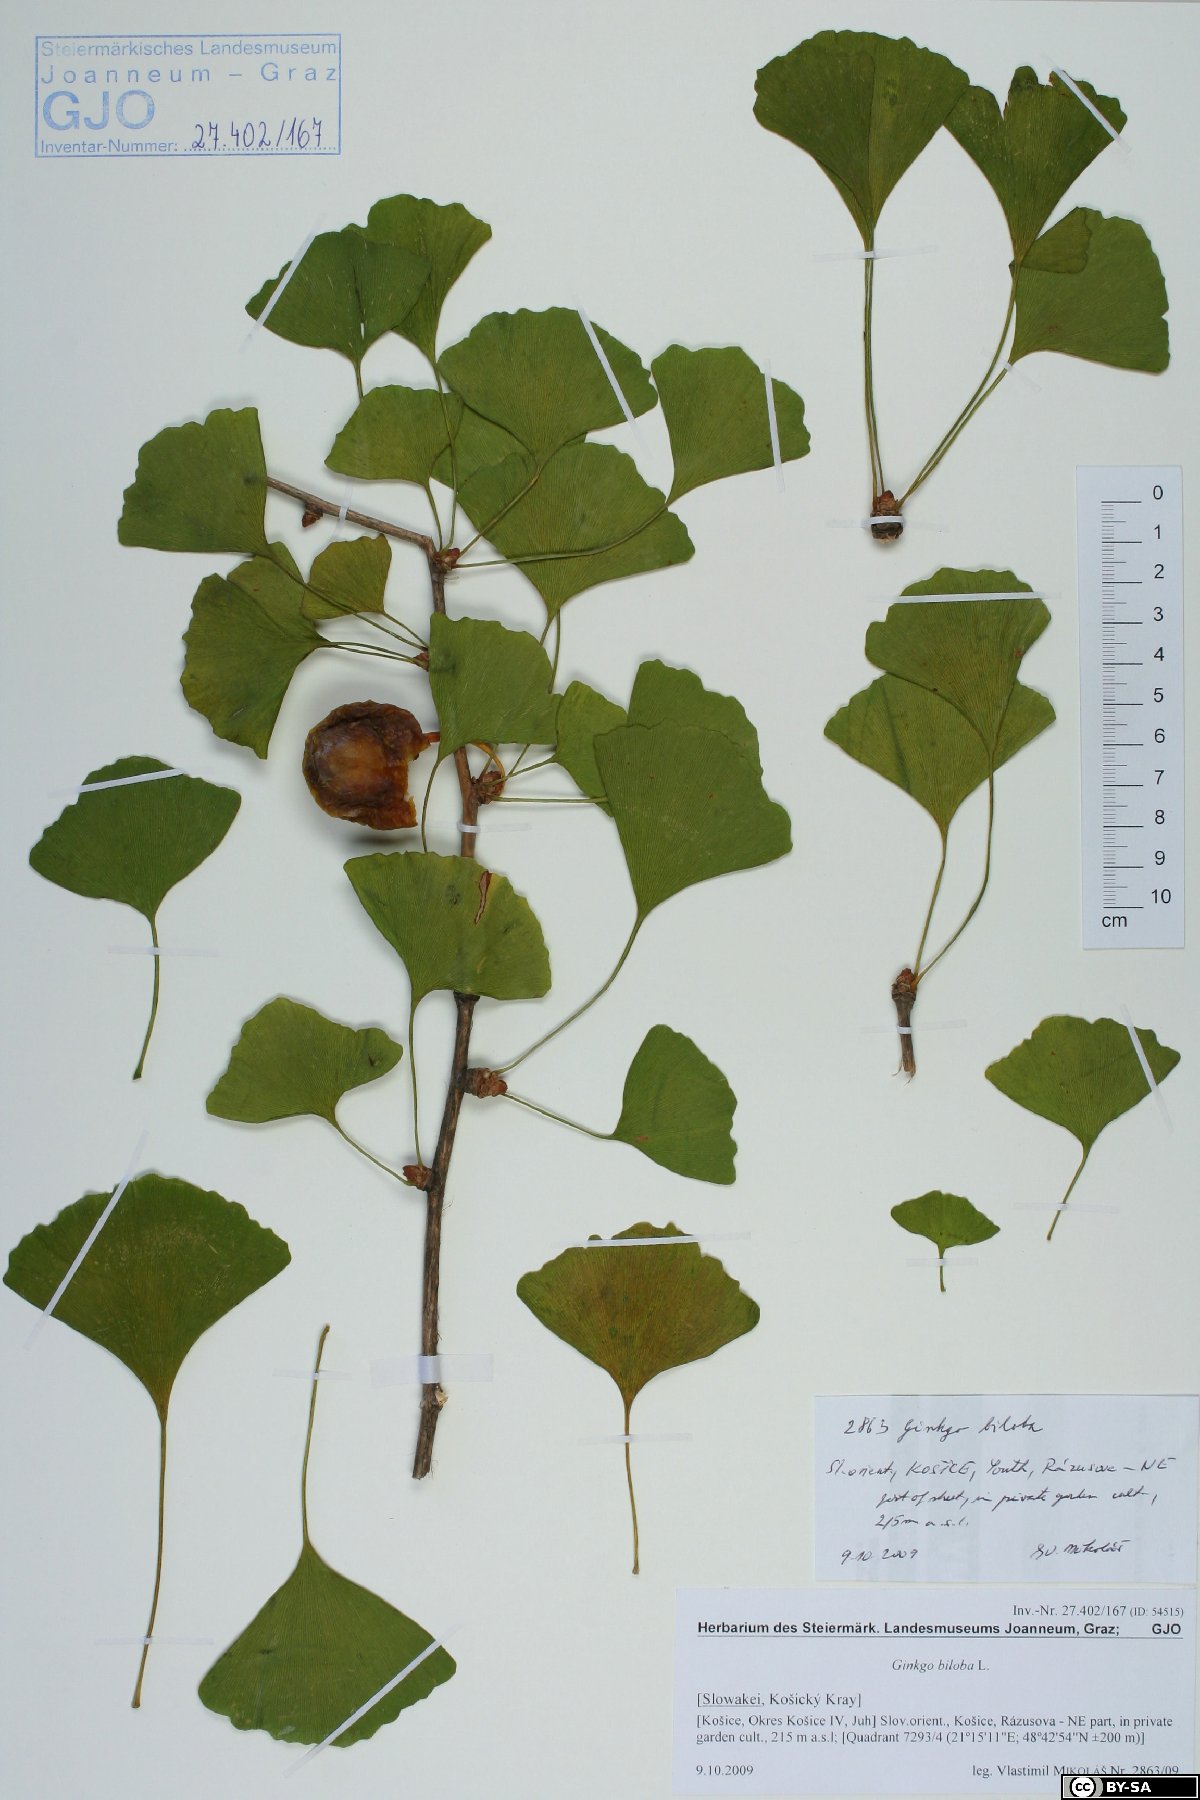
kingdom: Plantae
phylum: Tracheophyta
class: Ginkgoopsida
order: Ginkgoales
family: Ginkgoaceae
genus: Ginkgo
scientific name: Ginkgo biloba
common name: Ginkgo
